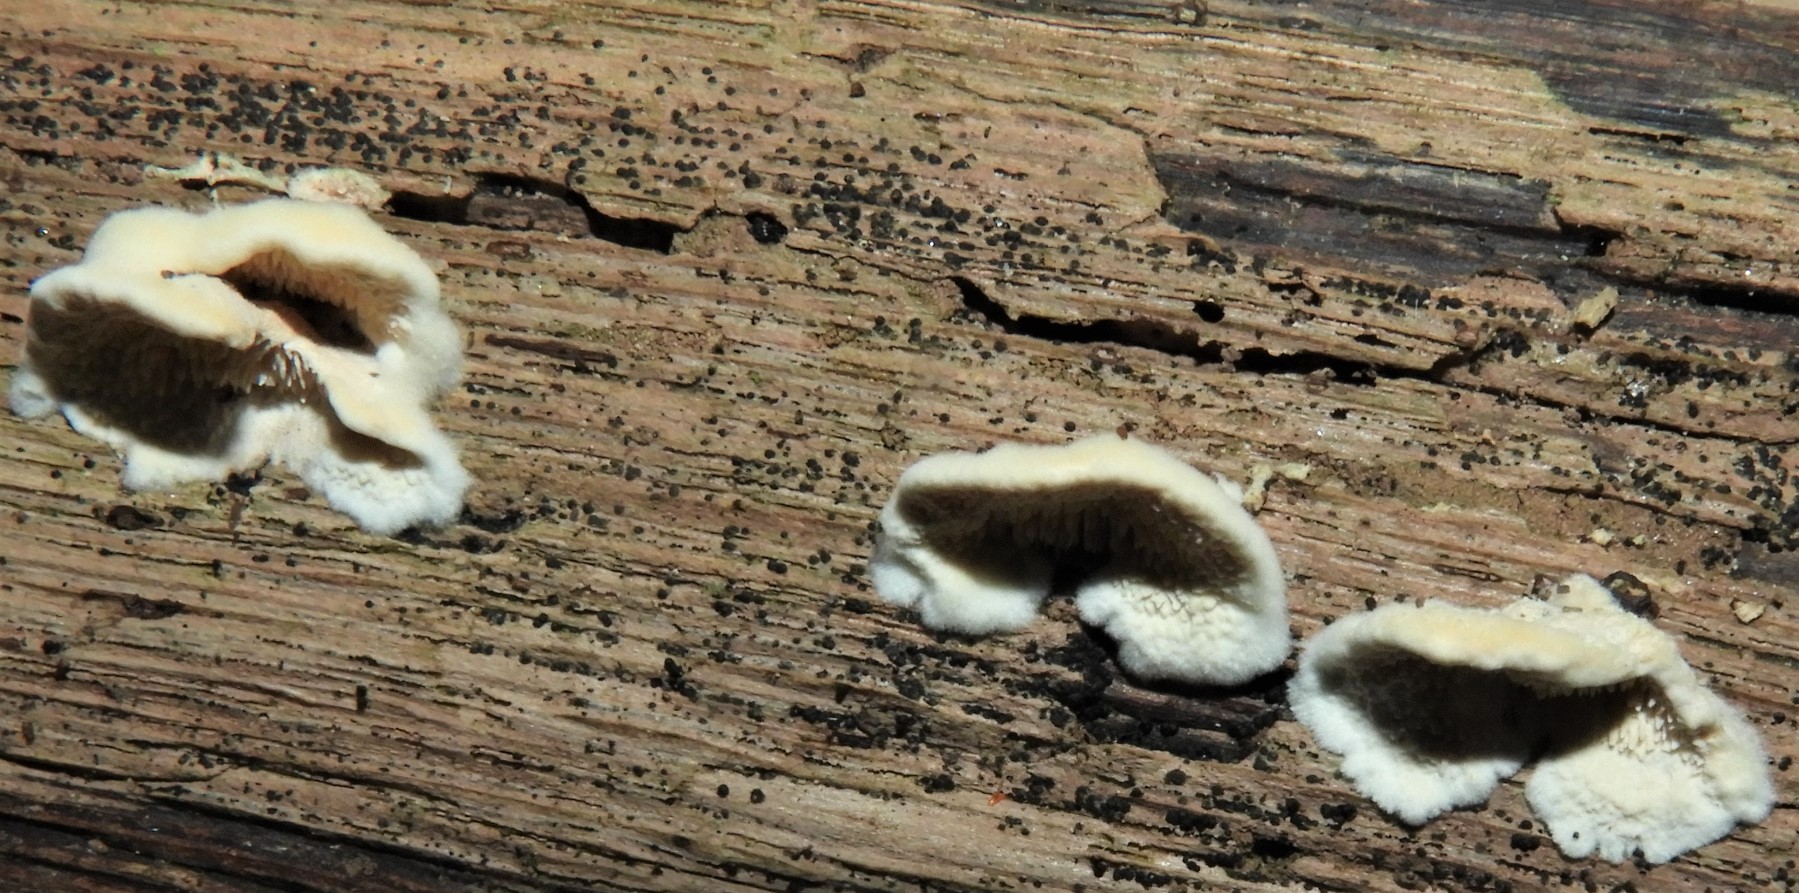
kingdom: Fungi
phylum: Basidiomycota
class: Agaricomycetes
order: Polyporales
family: Steccherinaceae
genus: Steccherinum
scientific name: Steccherinum bourdotii
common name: hat-skønpig
